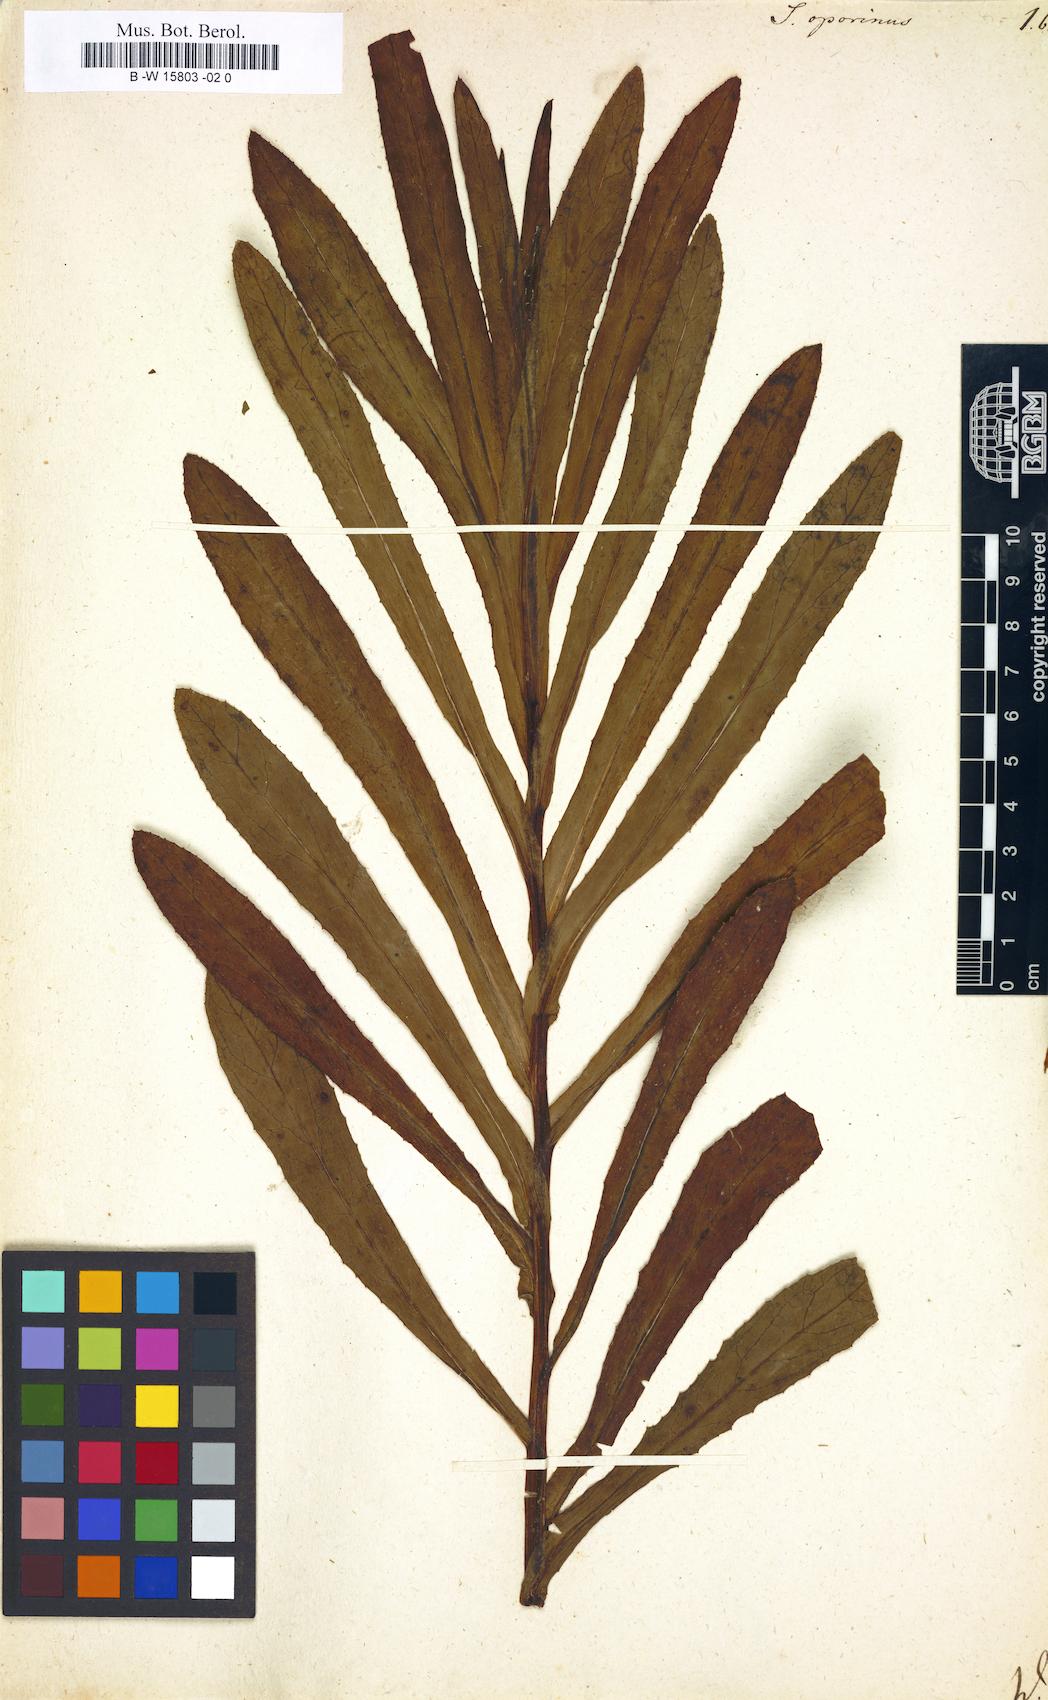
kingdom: Plantae
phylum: Tracheophyta
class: Magnoliopsida
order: Asterales
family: Asteraceae
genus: Senecio
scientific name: Senecio lanceus
